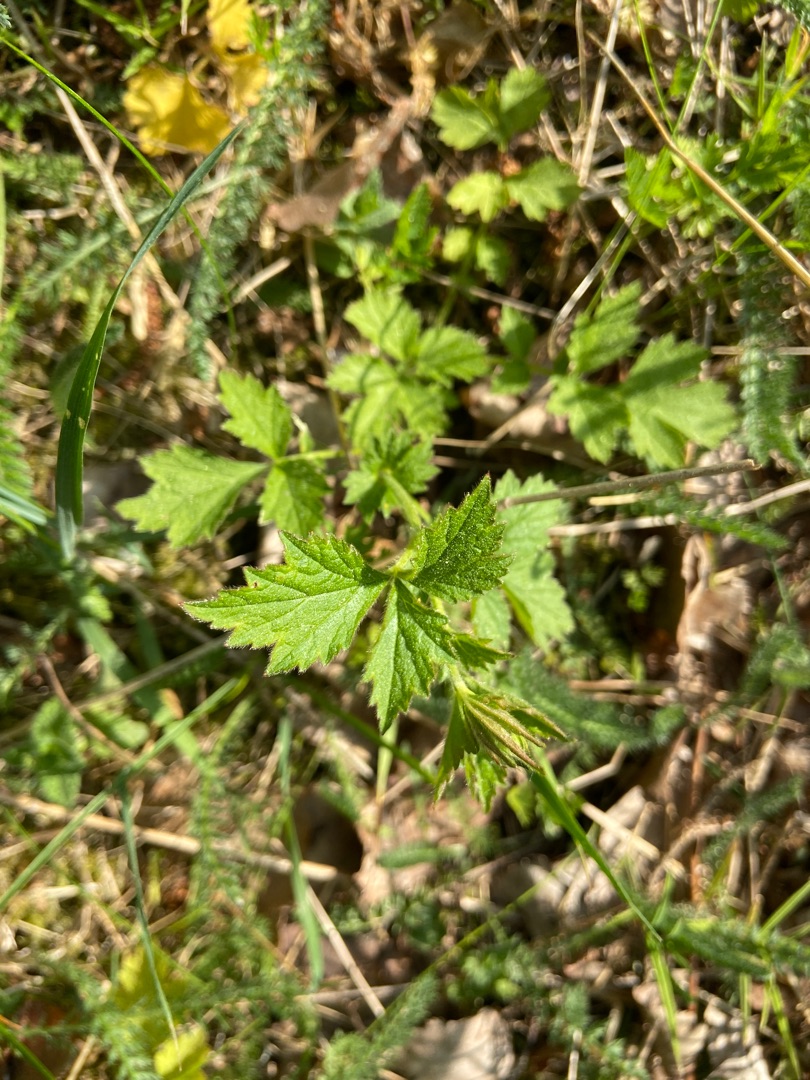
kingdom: Plantae
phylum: Tracheophyta
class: Magnoliopsida
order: Rosales
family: Rosaceae
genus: Geum
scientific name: Geum urbanum
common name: Feber-nellikerod
